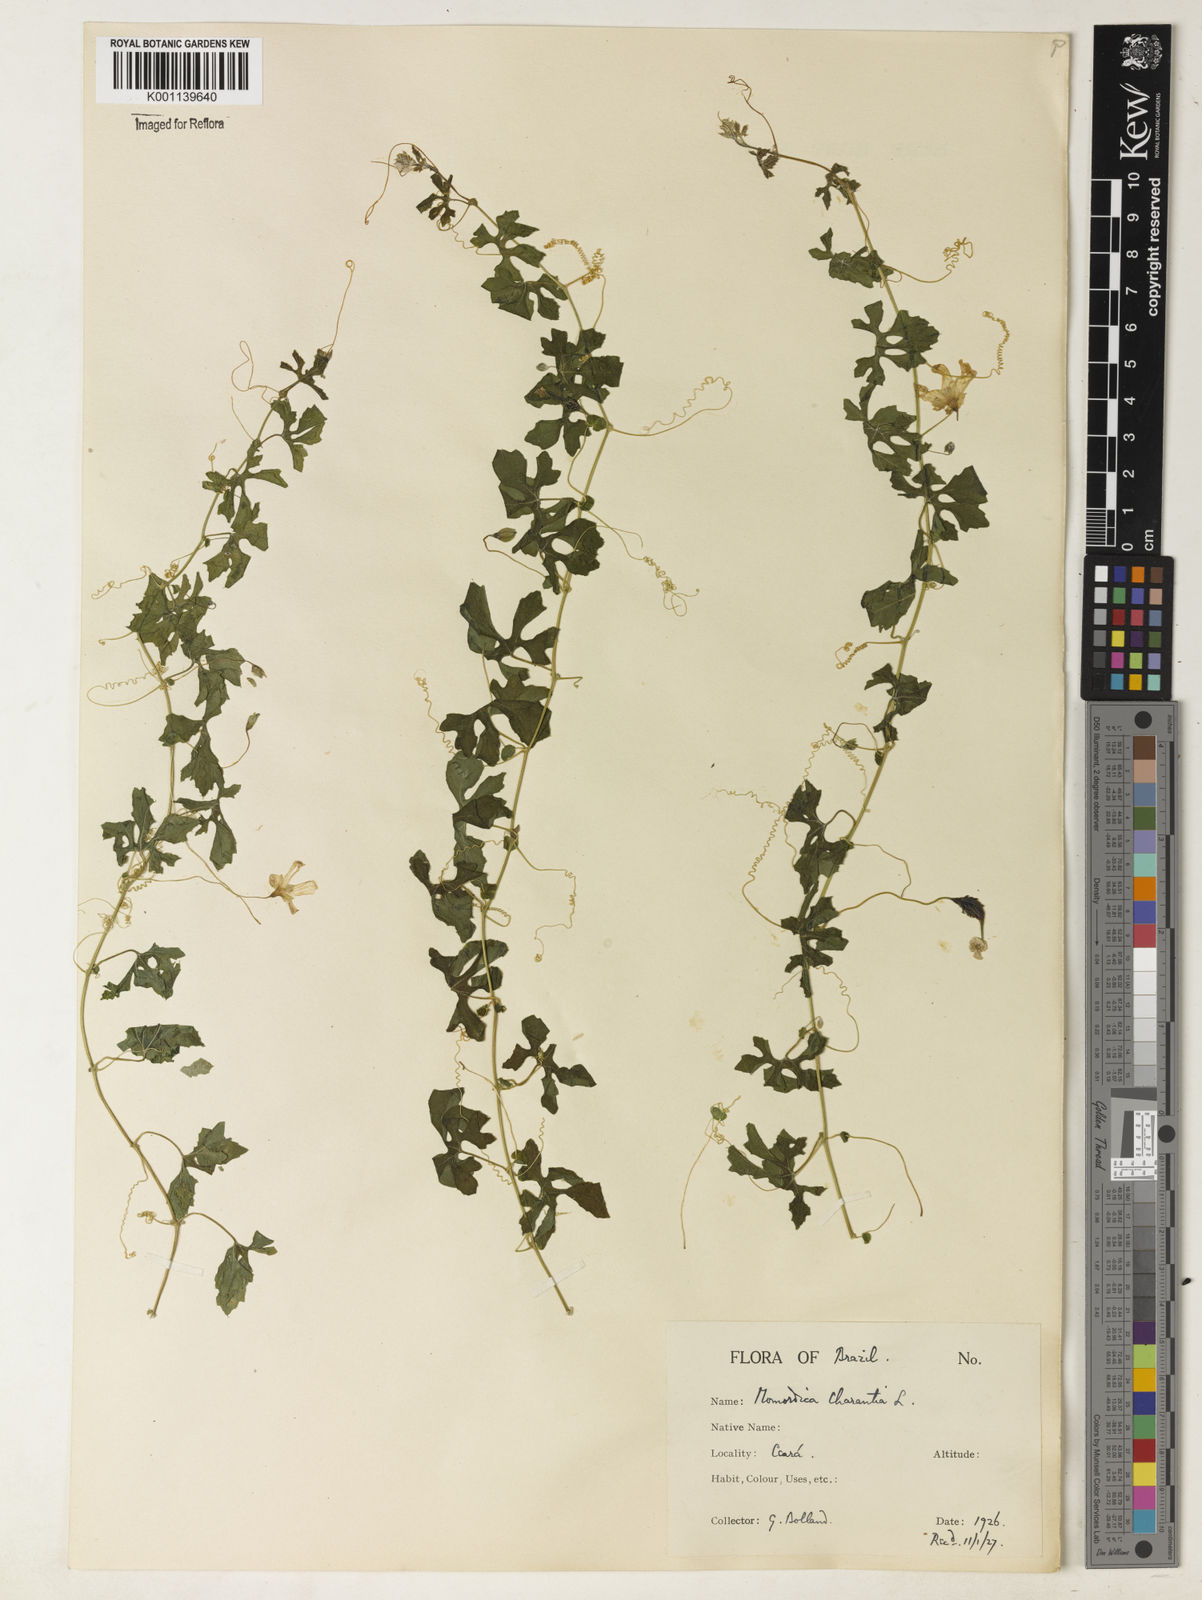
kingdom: Plantae
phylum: Tracheophyta
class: Magnoliopsida
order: Cucurbitales
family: Cucurbitaceae
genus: Momordica
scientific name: Momordica charantia
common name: Balsampear
